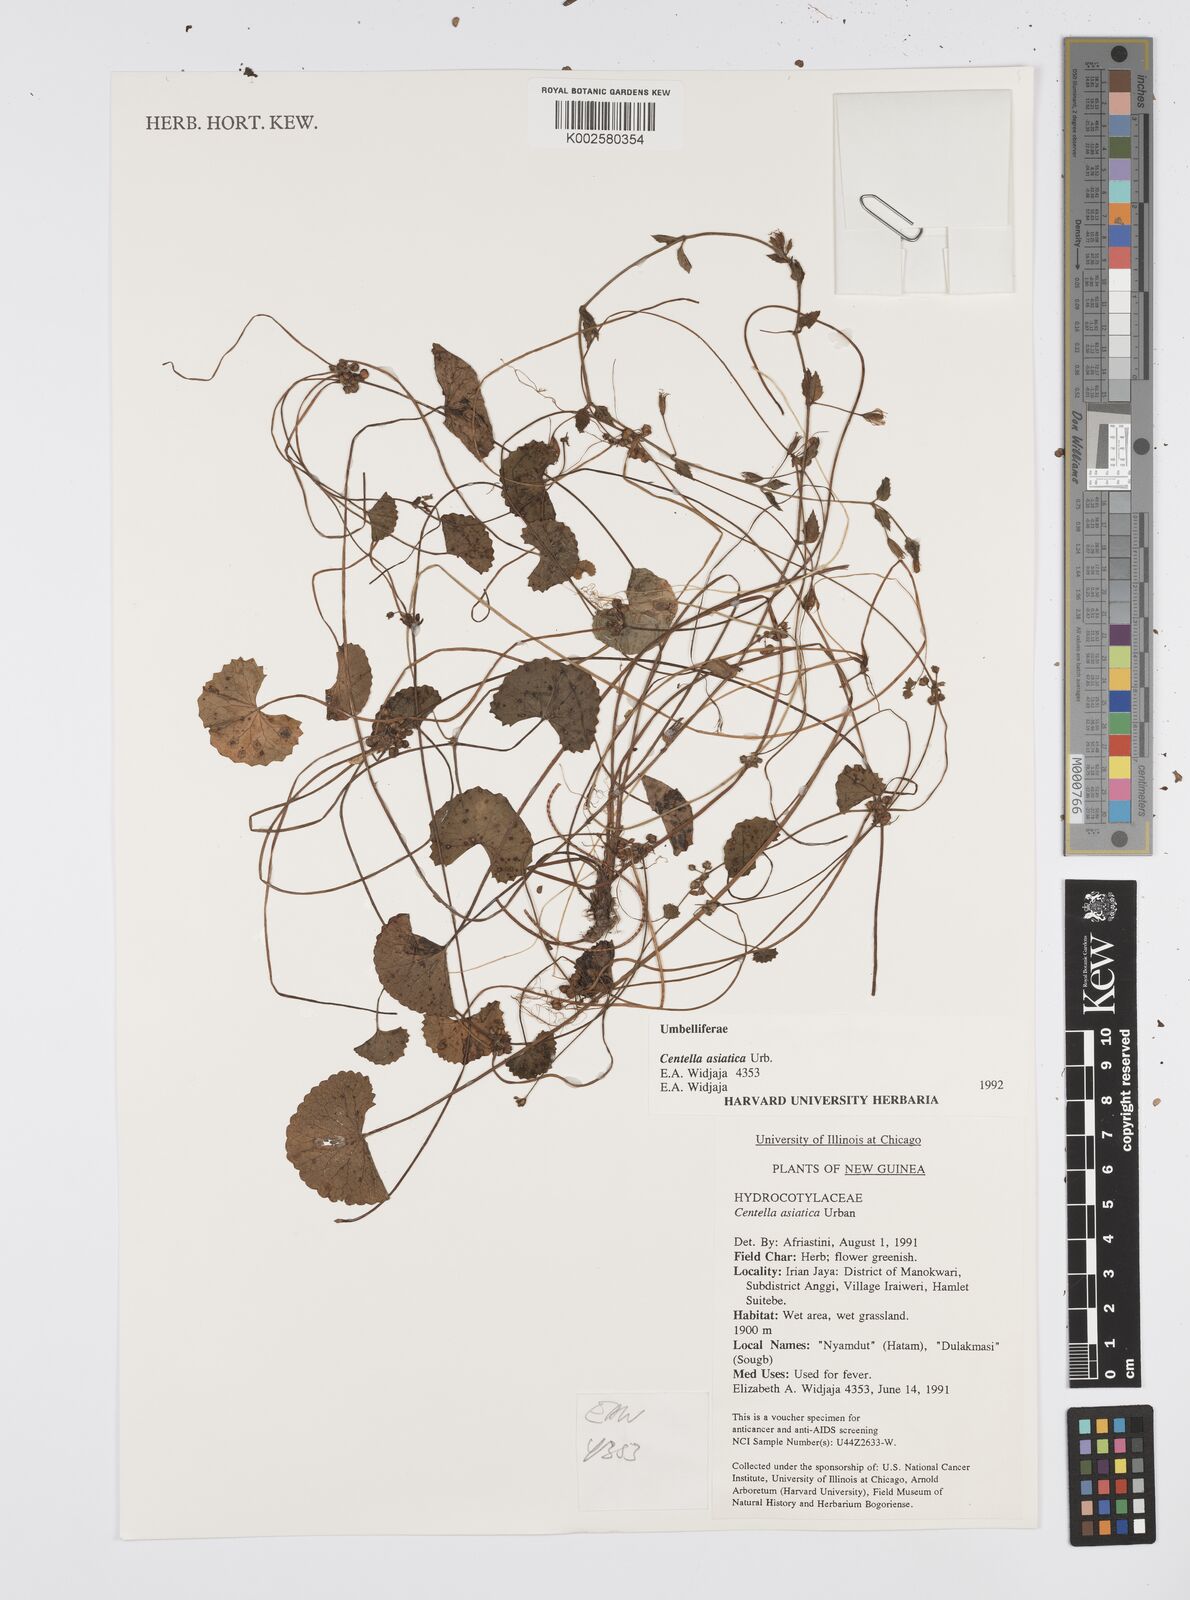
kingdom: Plantae
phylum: Tracheophyta
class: Magnoliopsida
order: Apiales
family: Apiaceae
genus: Centella
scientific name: Centella asiatica
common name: Spadeleaf
